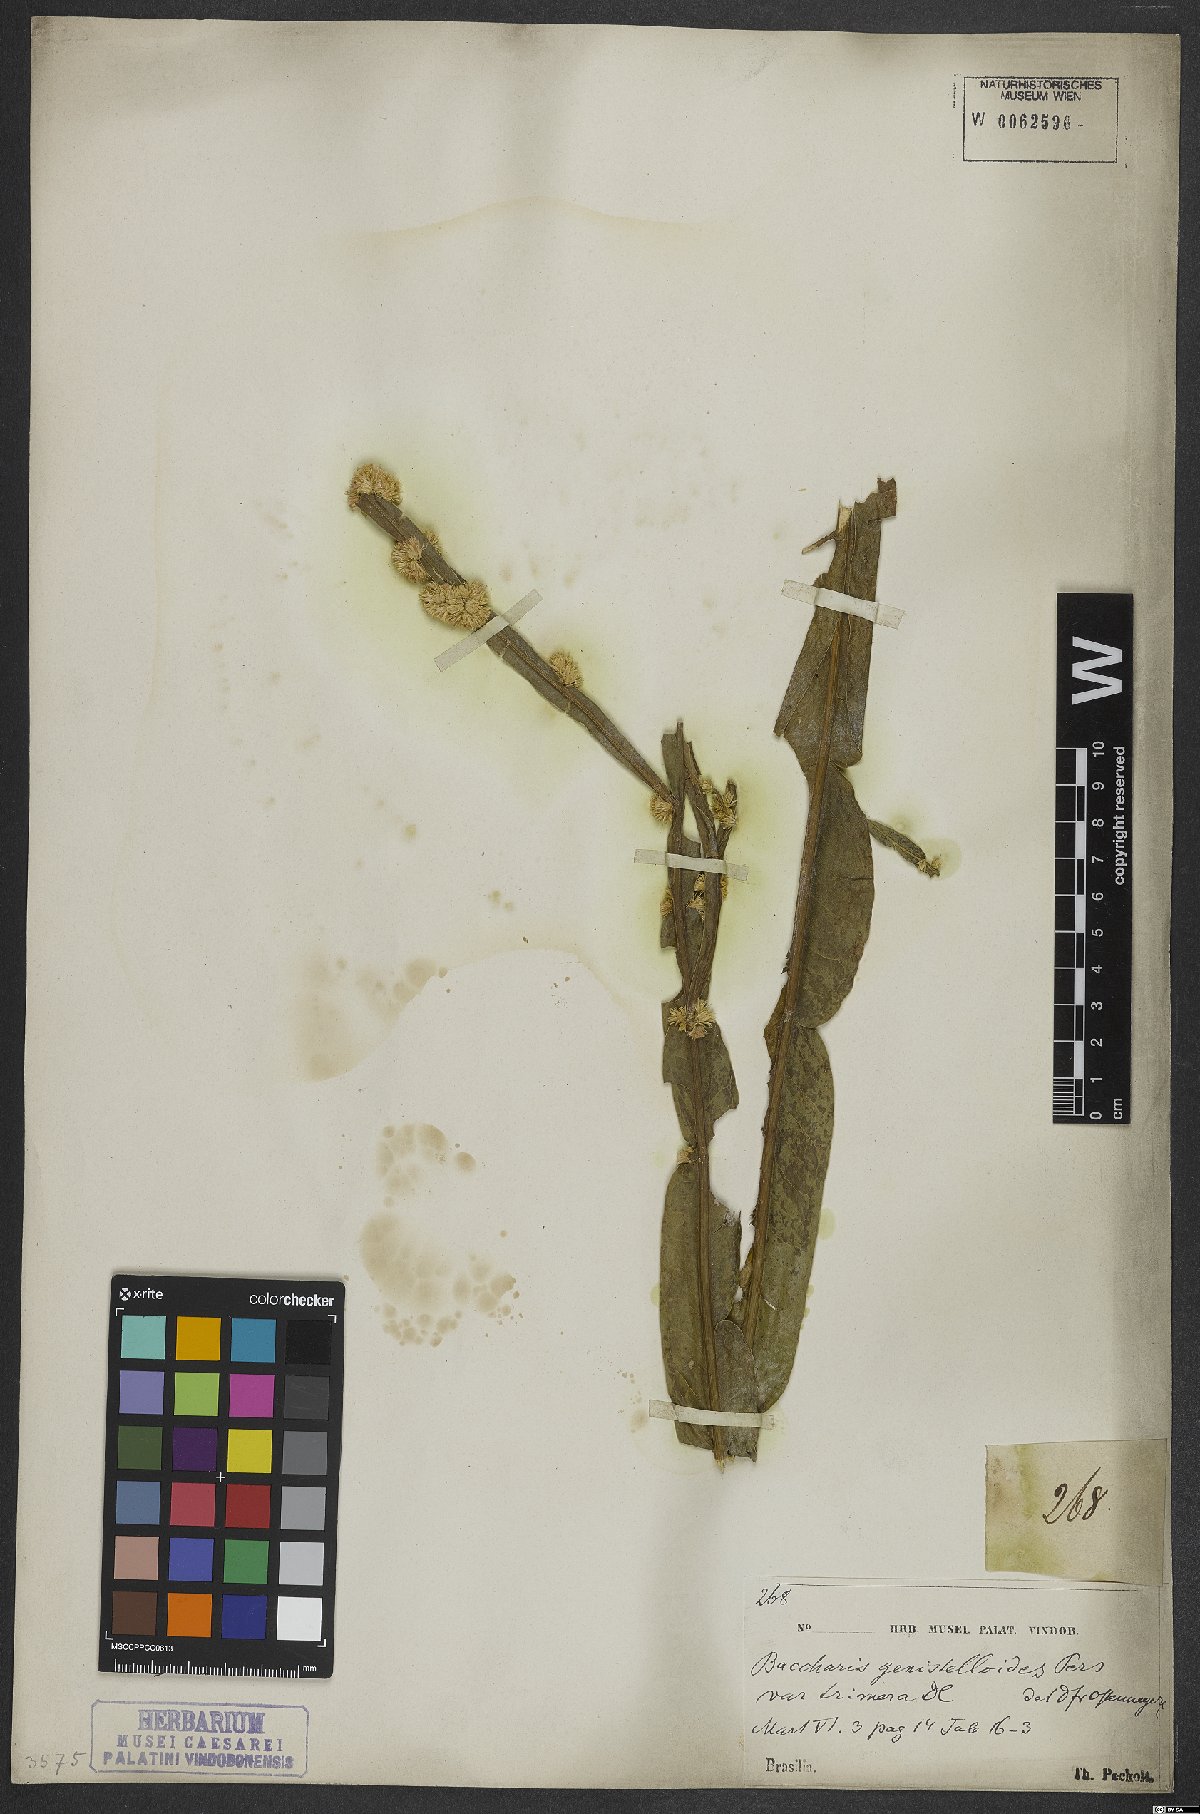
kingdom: Plantae
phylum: Tracheophyta
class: Magnoliopsida
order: Asterales
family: Asteraceae
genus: Baccharis
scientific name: Baccharis genistelloides
